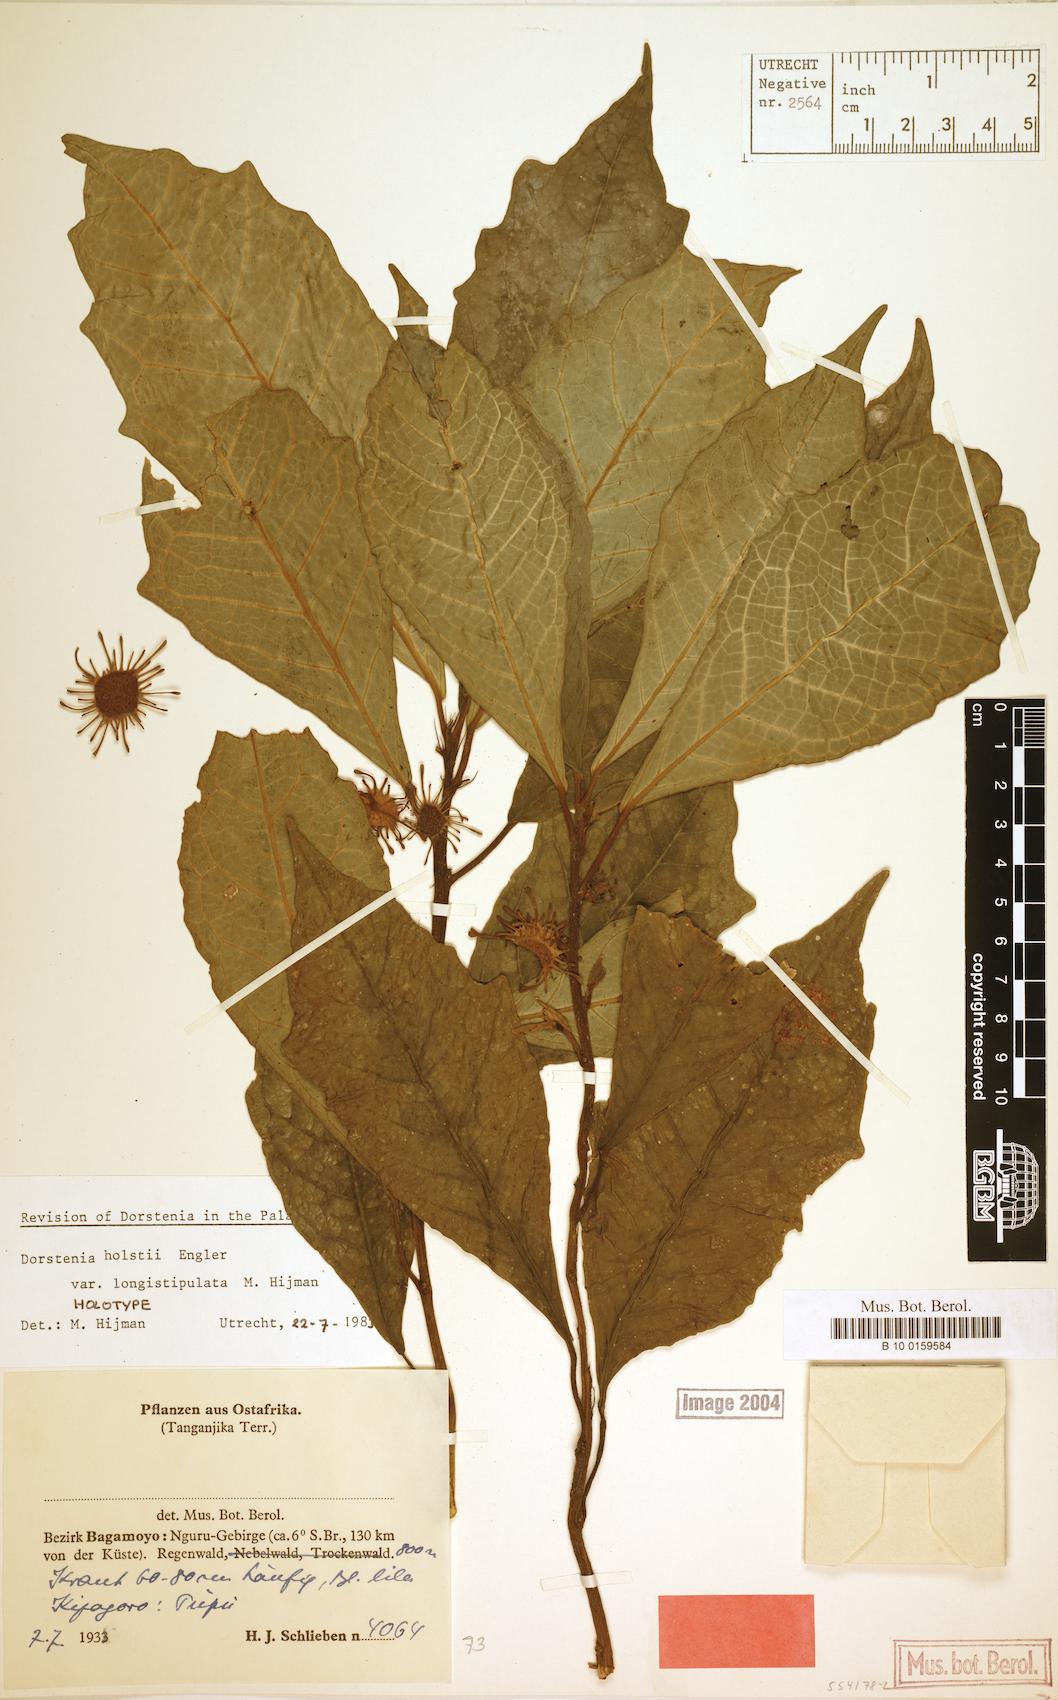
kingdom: Plantae
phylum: Tracheophyta
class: Magnoliopsida
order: Rosales
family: Moraceae
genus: Dorstenia
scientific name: Dorstenia holstii
